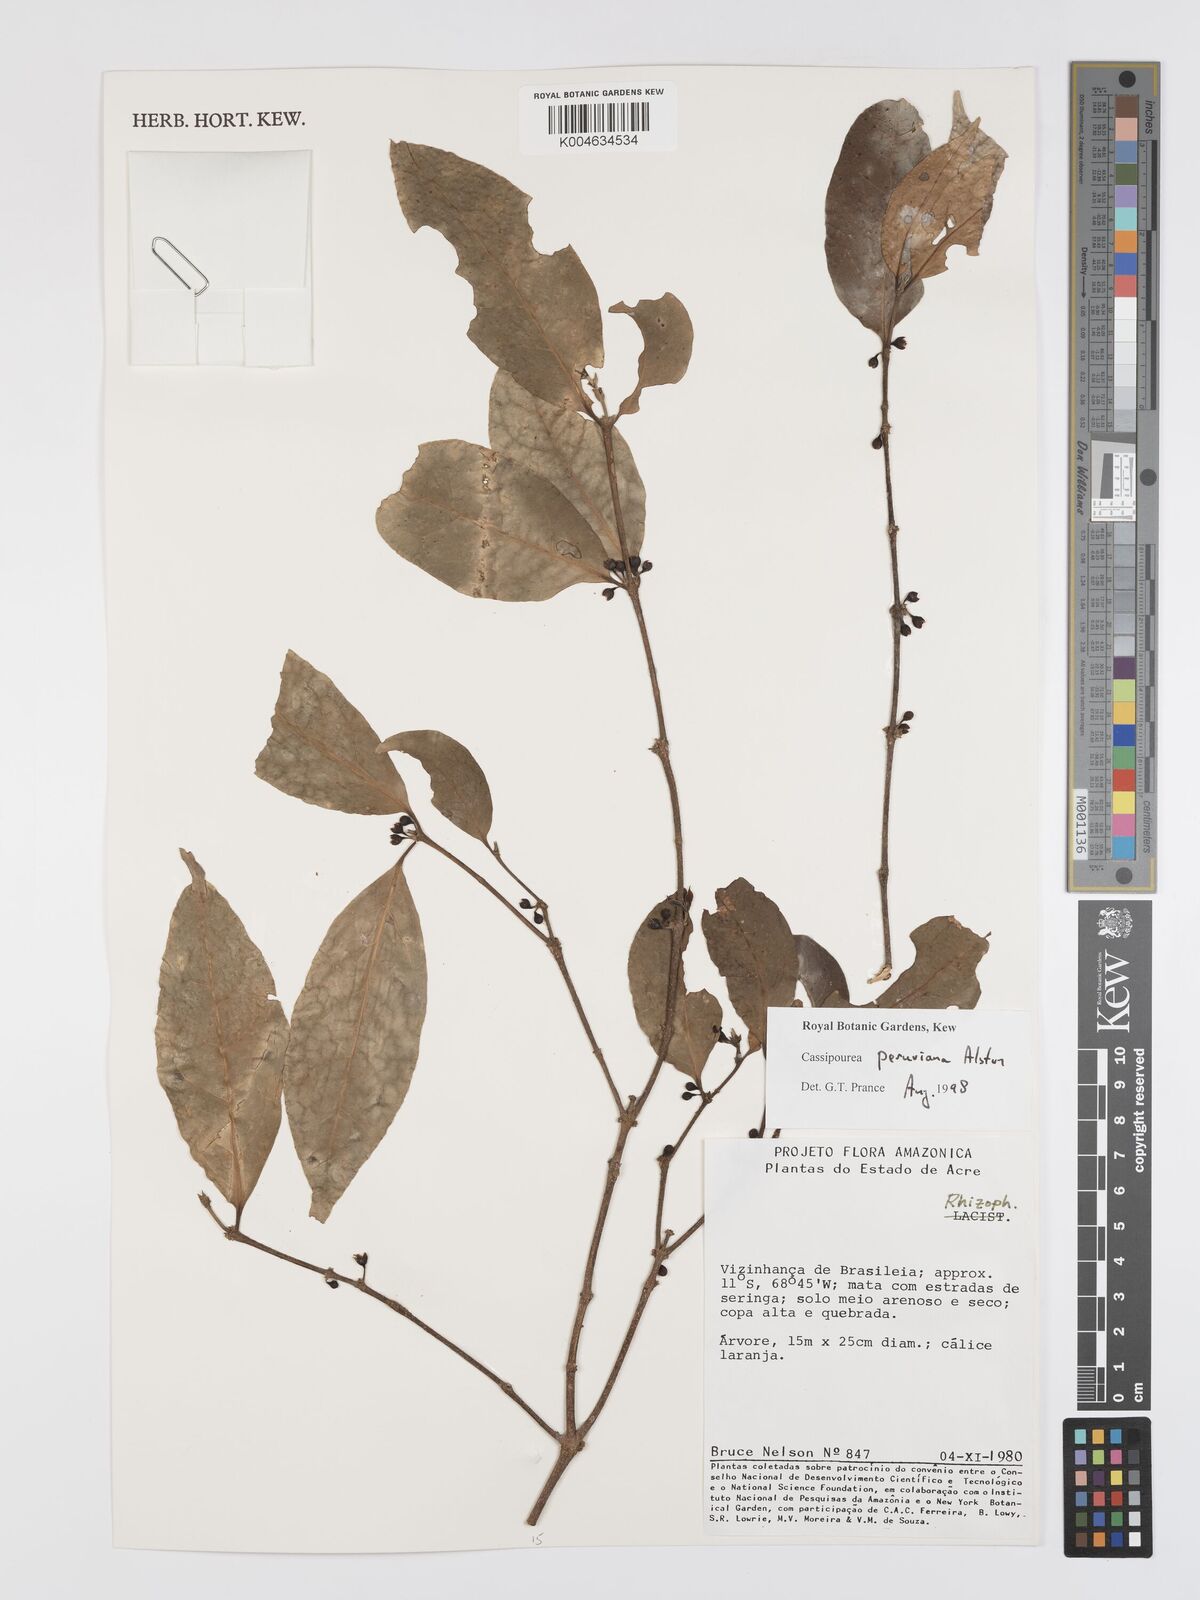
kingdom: Plantae
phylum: Tracheophyta
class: Magnoliopsida
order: Malpighiales
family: Rhizophoraceae
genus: Cassipourea
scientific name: Cassipourea peruviana
